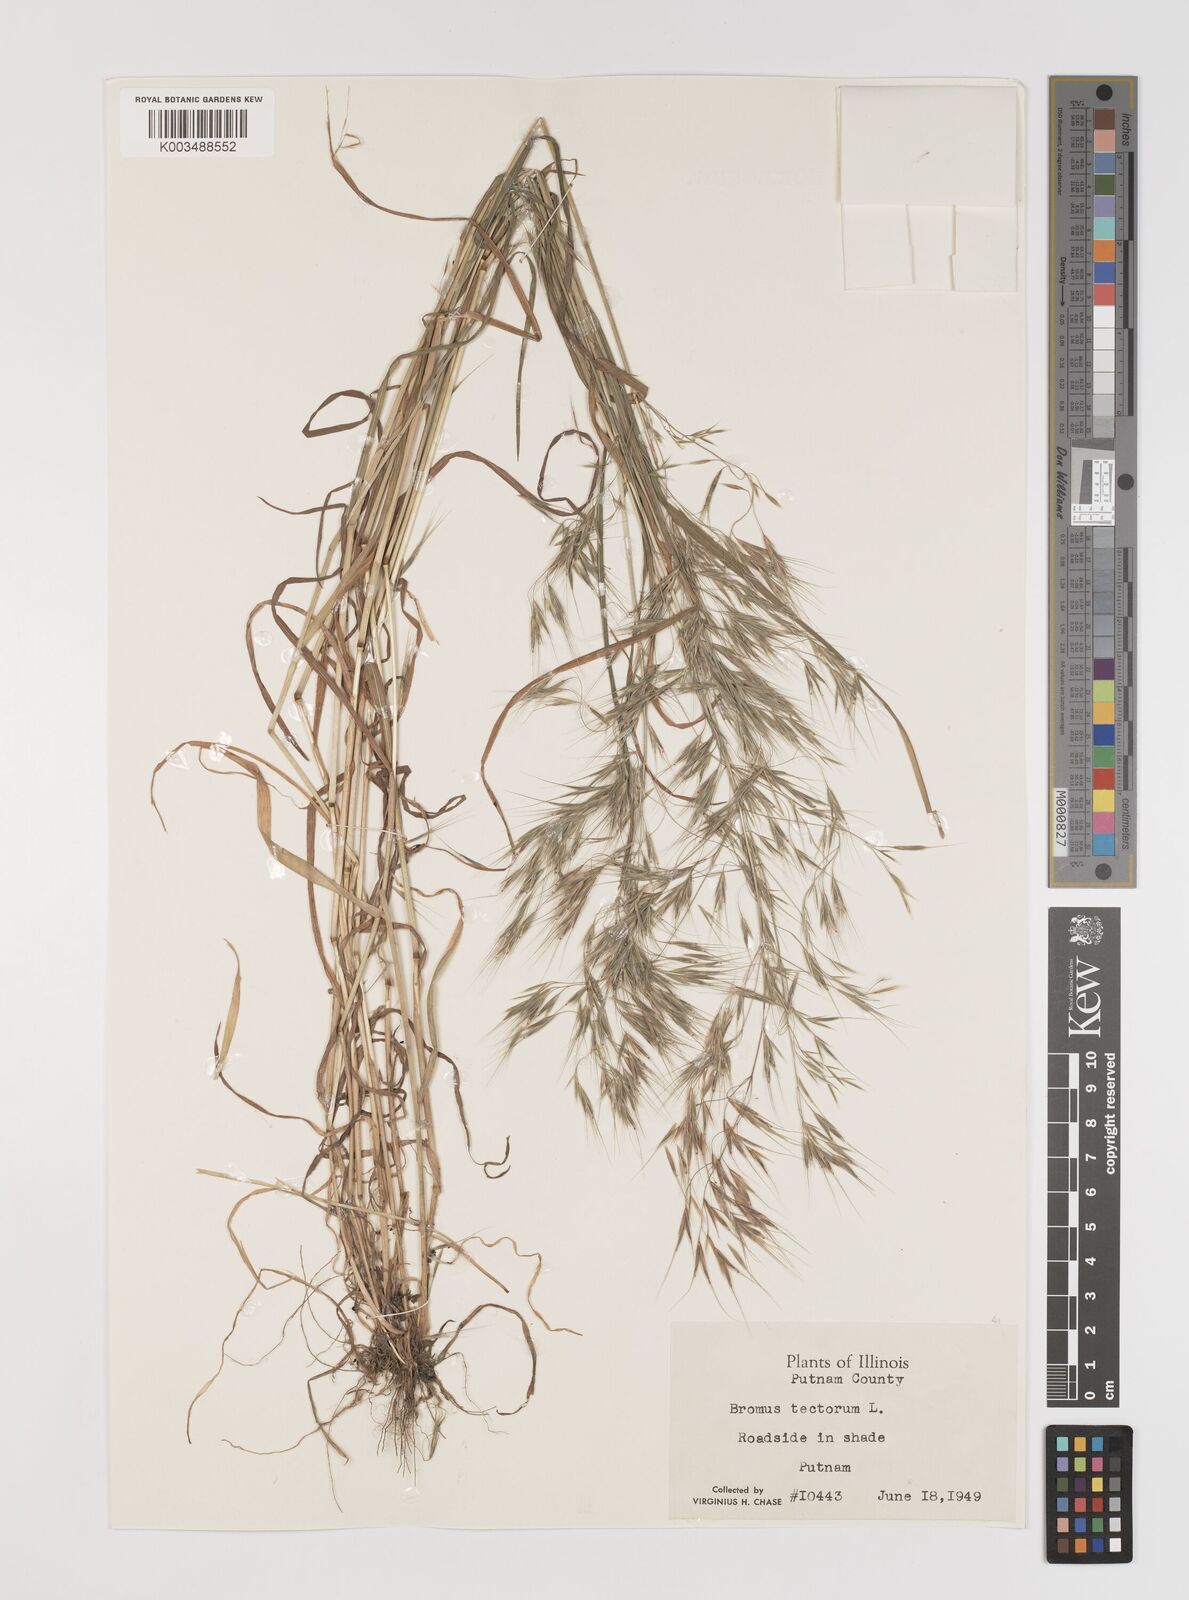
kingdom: Plantae
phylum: Tracheophyta
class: Liliopsida
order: Poales
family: Poaceae
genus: Bromus
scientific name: Bromus tectorum
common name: Cheatgrass
